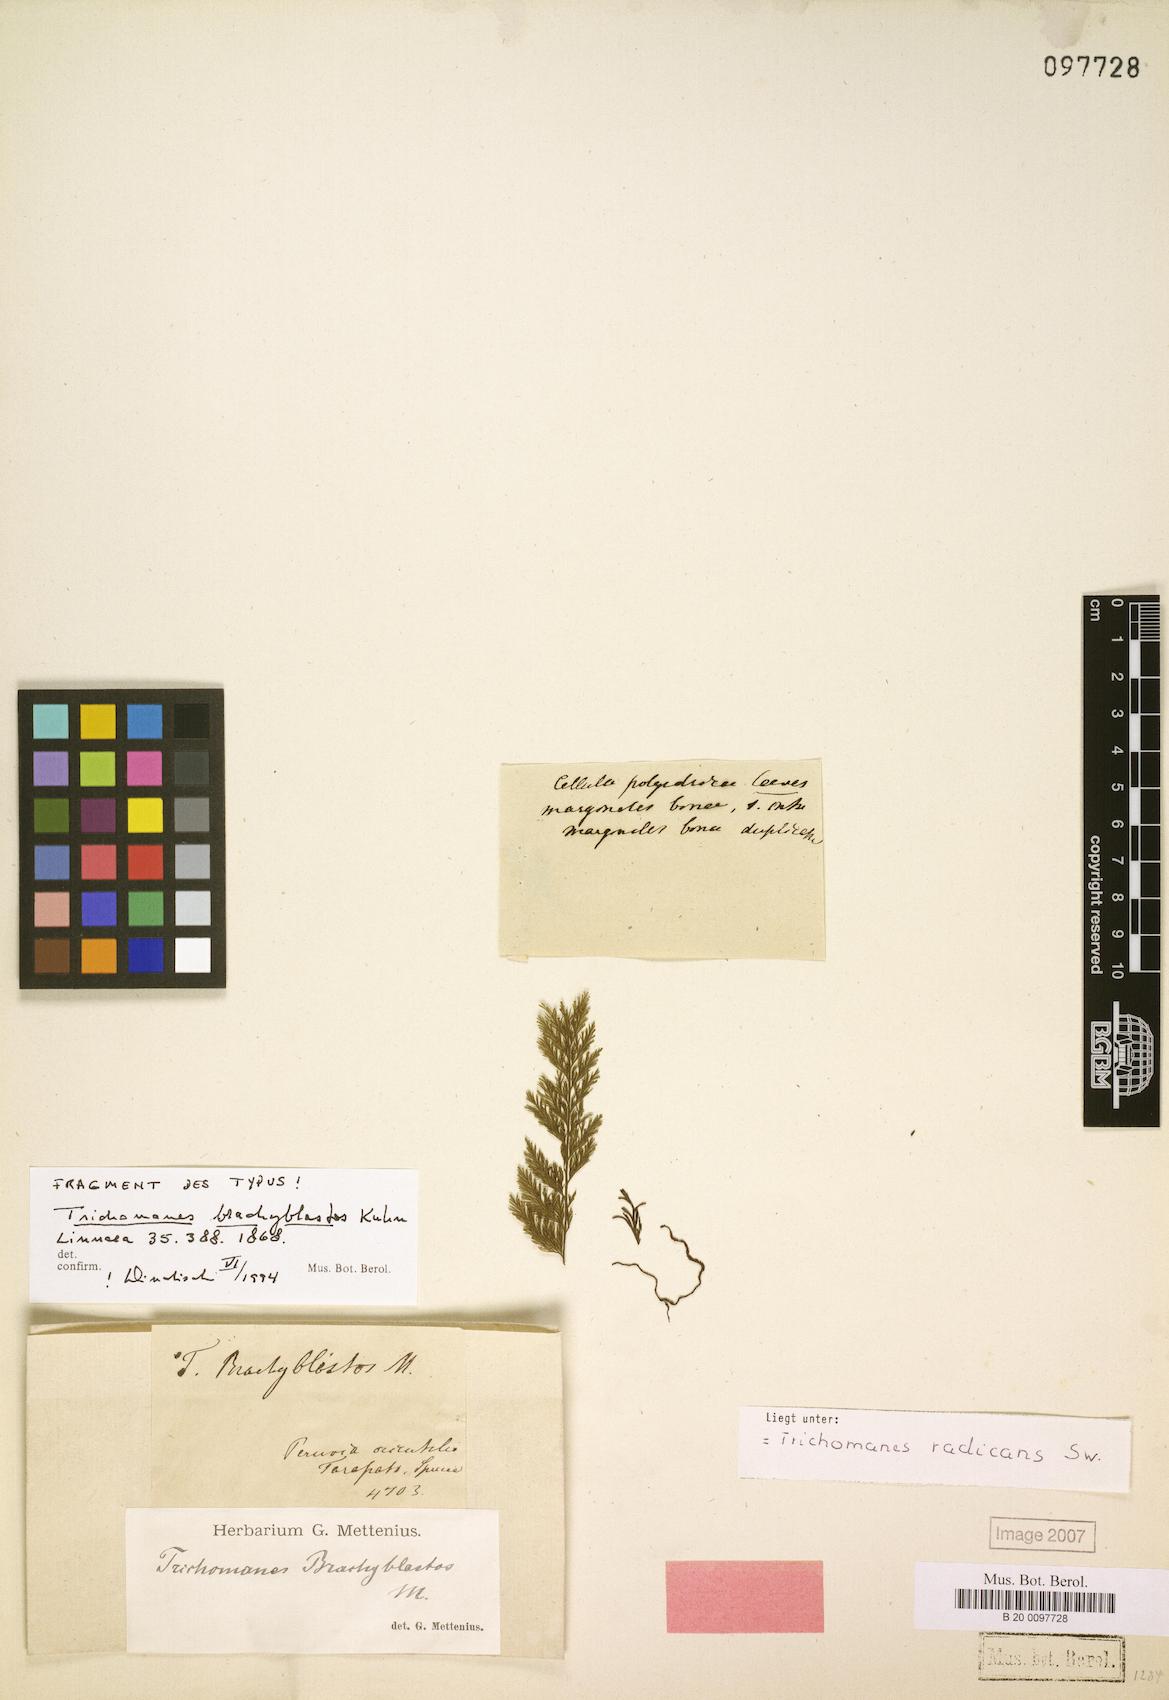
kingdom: Plantae
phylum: Tracheophyta
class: Polypodiopsida
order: Hymenophyllales
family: Hymenophyllaceae
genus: Vandenboschia
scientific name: Vandenboschia radicans
